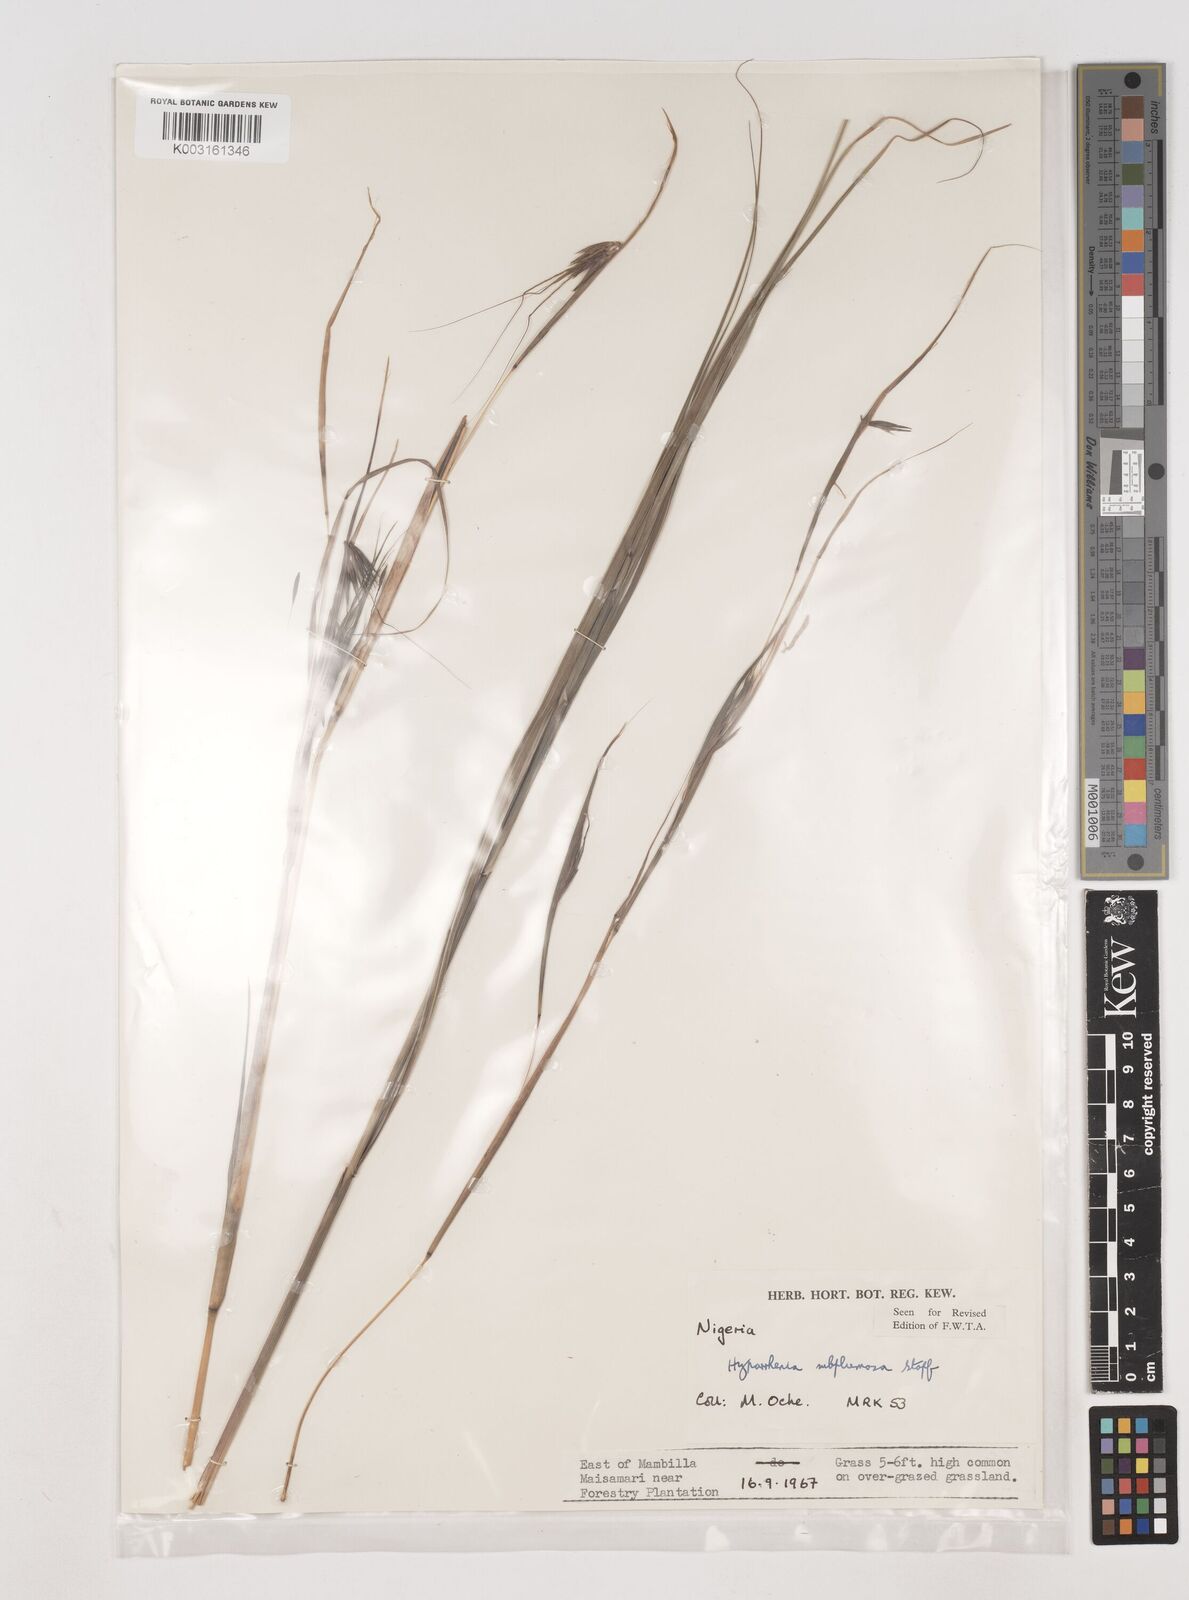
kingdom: Plantae
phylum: Tracheophyta
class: Liliopsida
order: Poales
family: Poaceae
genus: Hyparrhenia
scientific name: Hyparrhenia subplumosa
